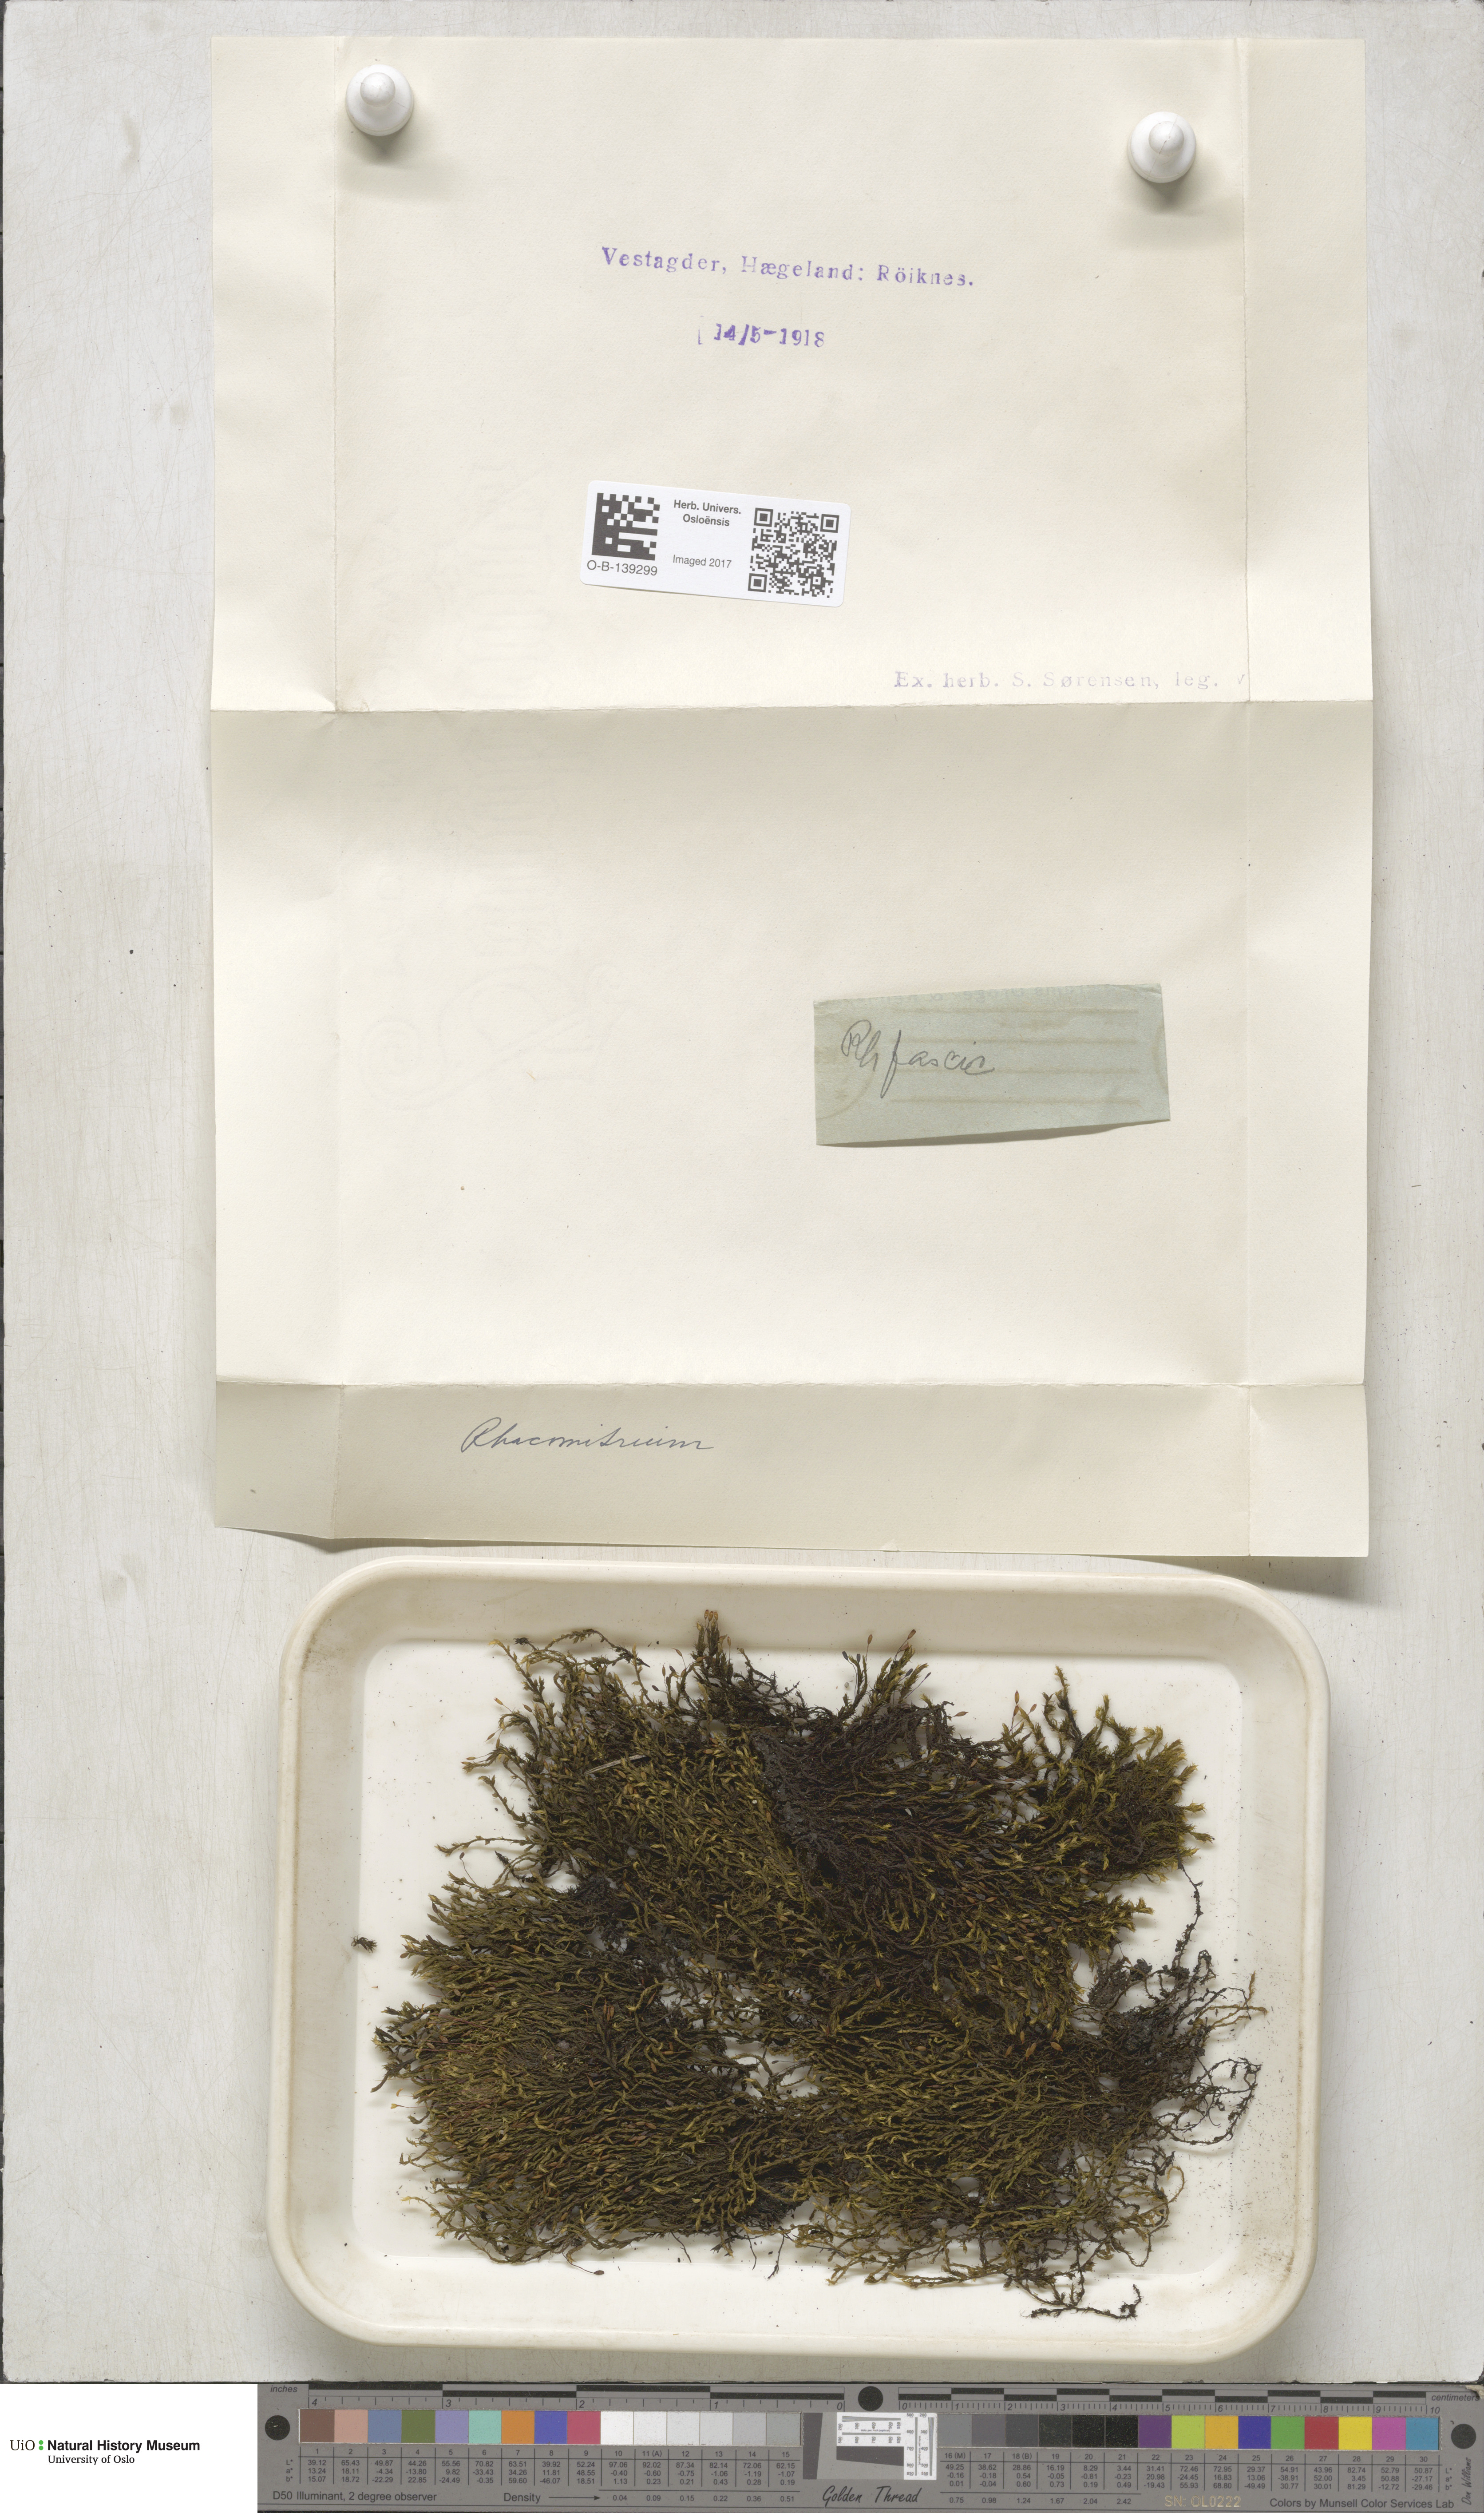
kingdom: Plantae
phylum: Bryophyta
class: Bryopsida
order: Grimmiales
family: Grimmiaceae
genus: Racomitrium
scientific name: Racomitrium
